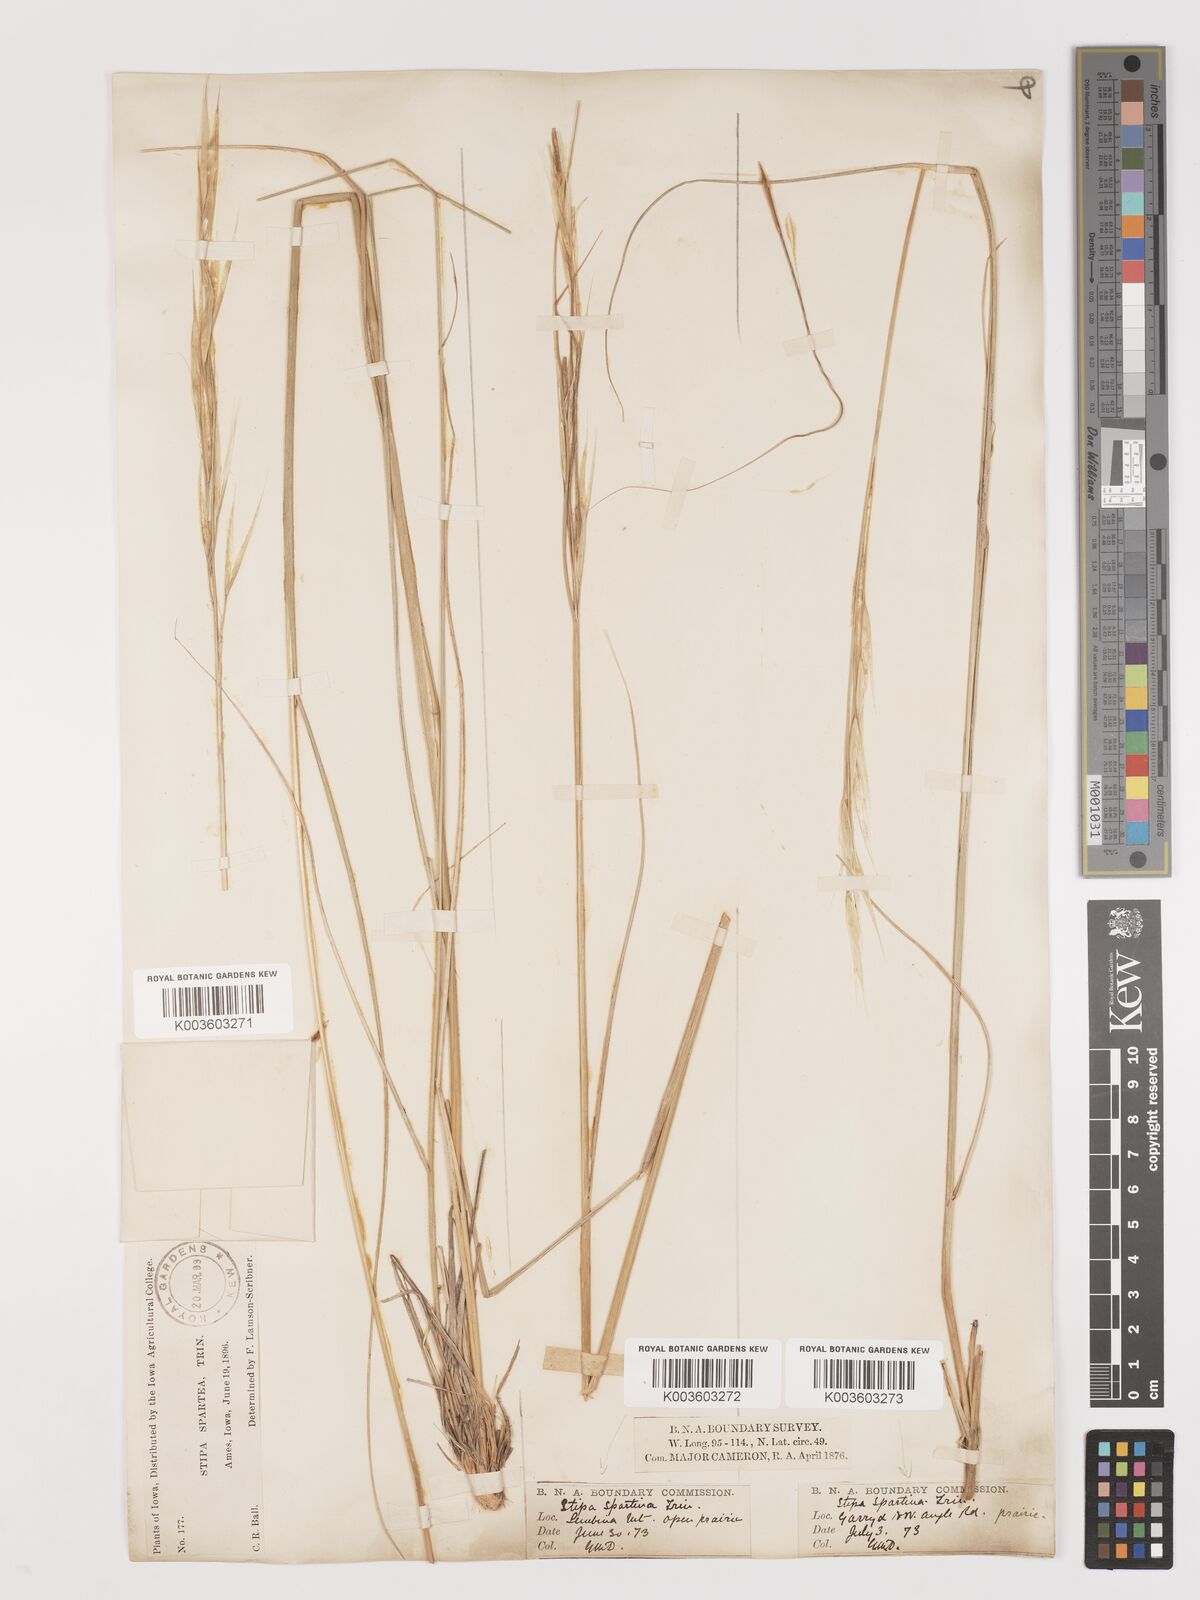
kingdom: Plantae
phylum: Tracheophyta
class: Liliopsida
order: Poales
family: Poaceae
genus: Hesperostipa
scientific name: Hesperostipa spartea
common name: Porcupine grass
